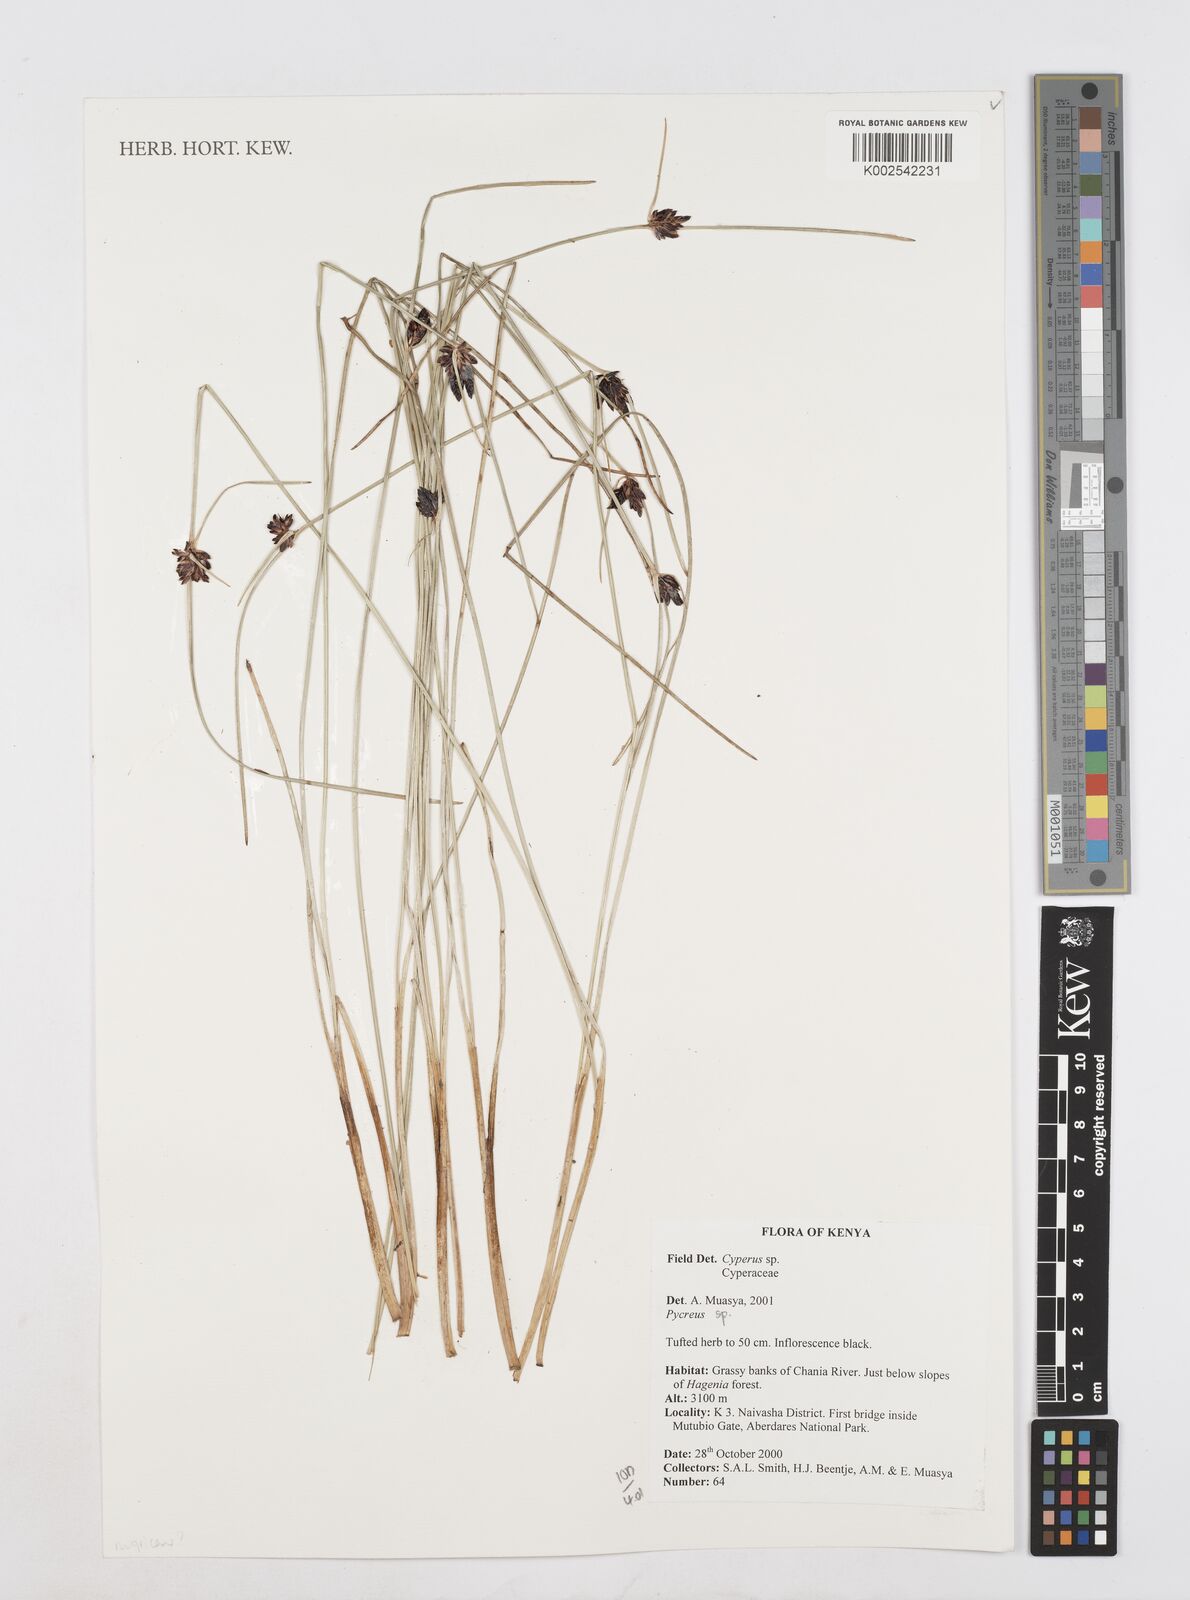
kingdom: Plantae
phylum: Tracheophyta
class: Liliopsida
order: Poales
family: Cyperaceae
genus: Cyperus
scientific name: Cyperus
